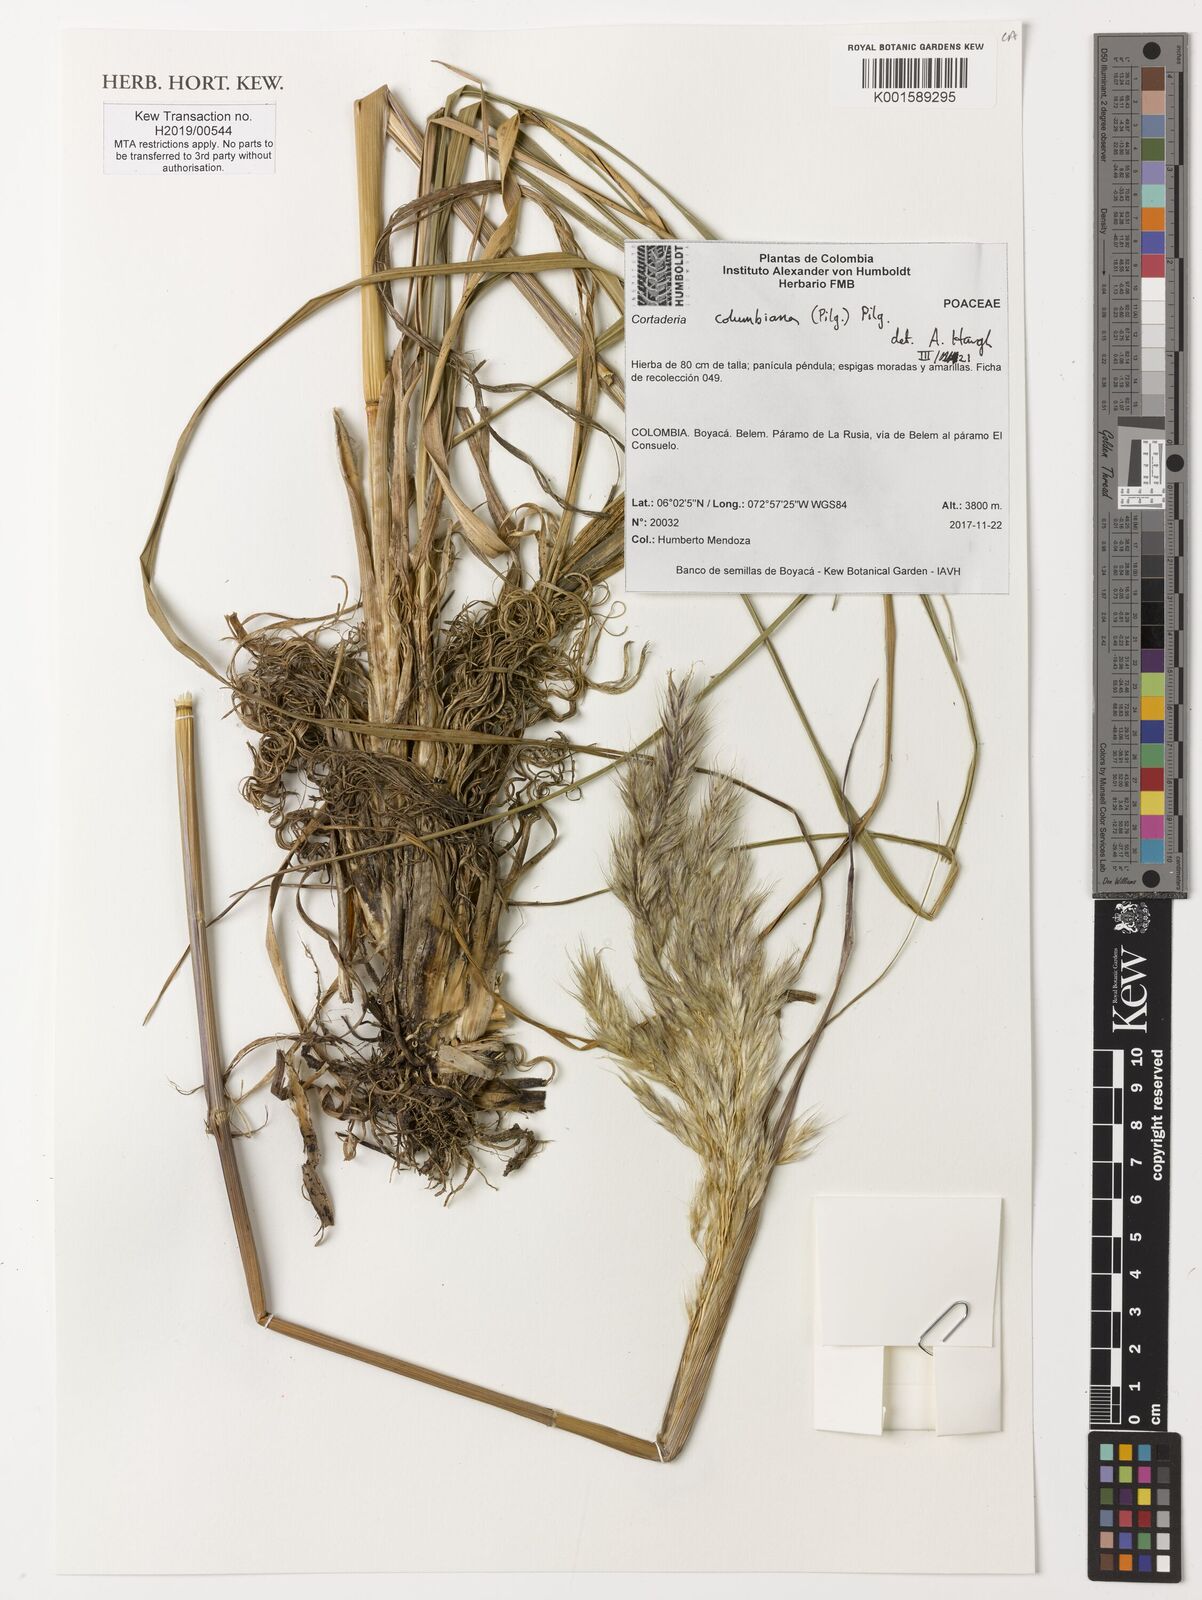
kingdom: Plantae
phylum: Tracheophyta
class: Liliopsida
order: Poales
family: Poaceae
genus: Cortaderia
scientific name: Cortaderia columbiana
